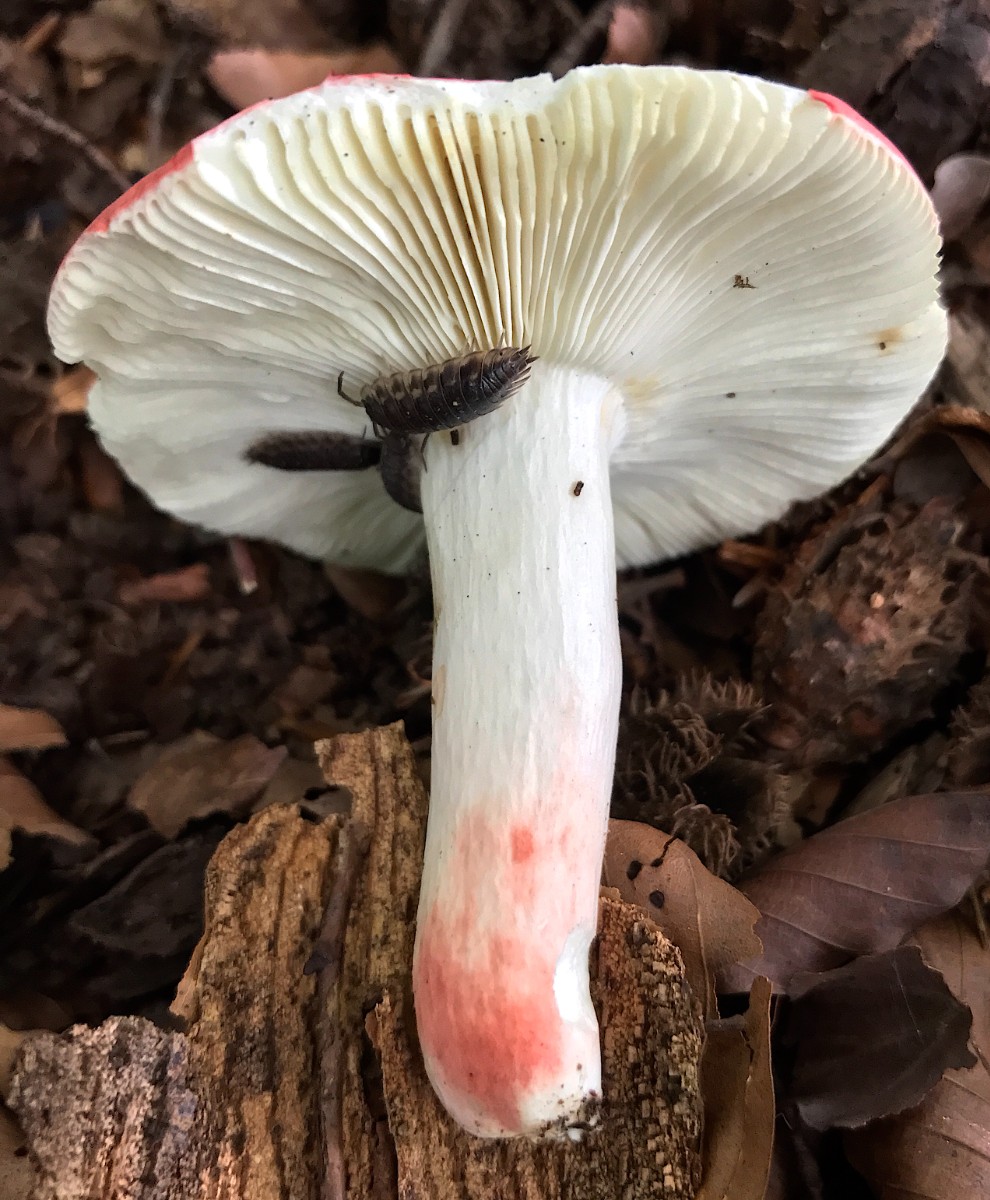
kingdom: Fungi
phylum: Basidiomycota
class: Agaricomycetes
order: Russulales
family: Russulaceae
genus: Russula
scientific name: Russula rosea
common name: fastkødet skørhat
